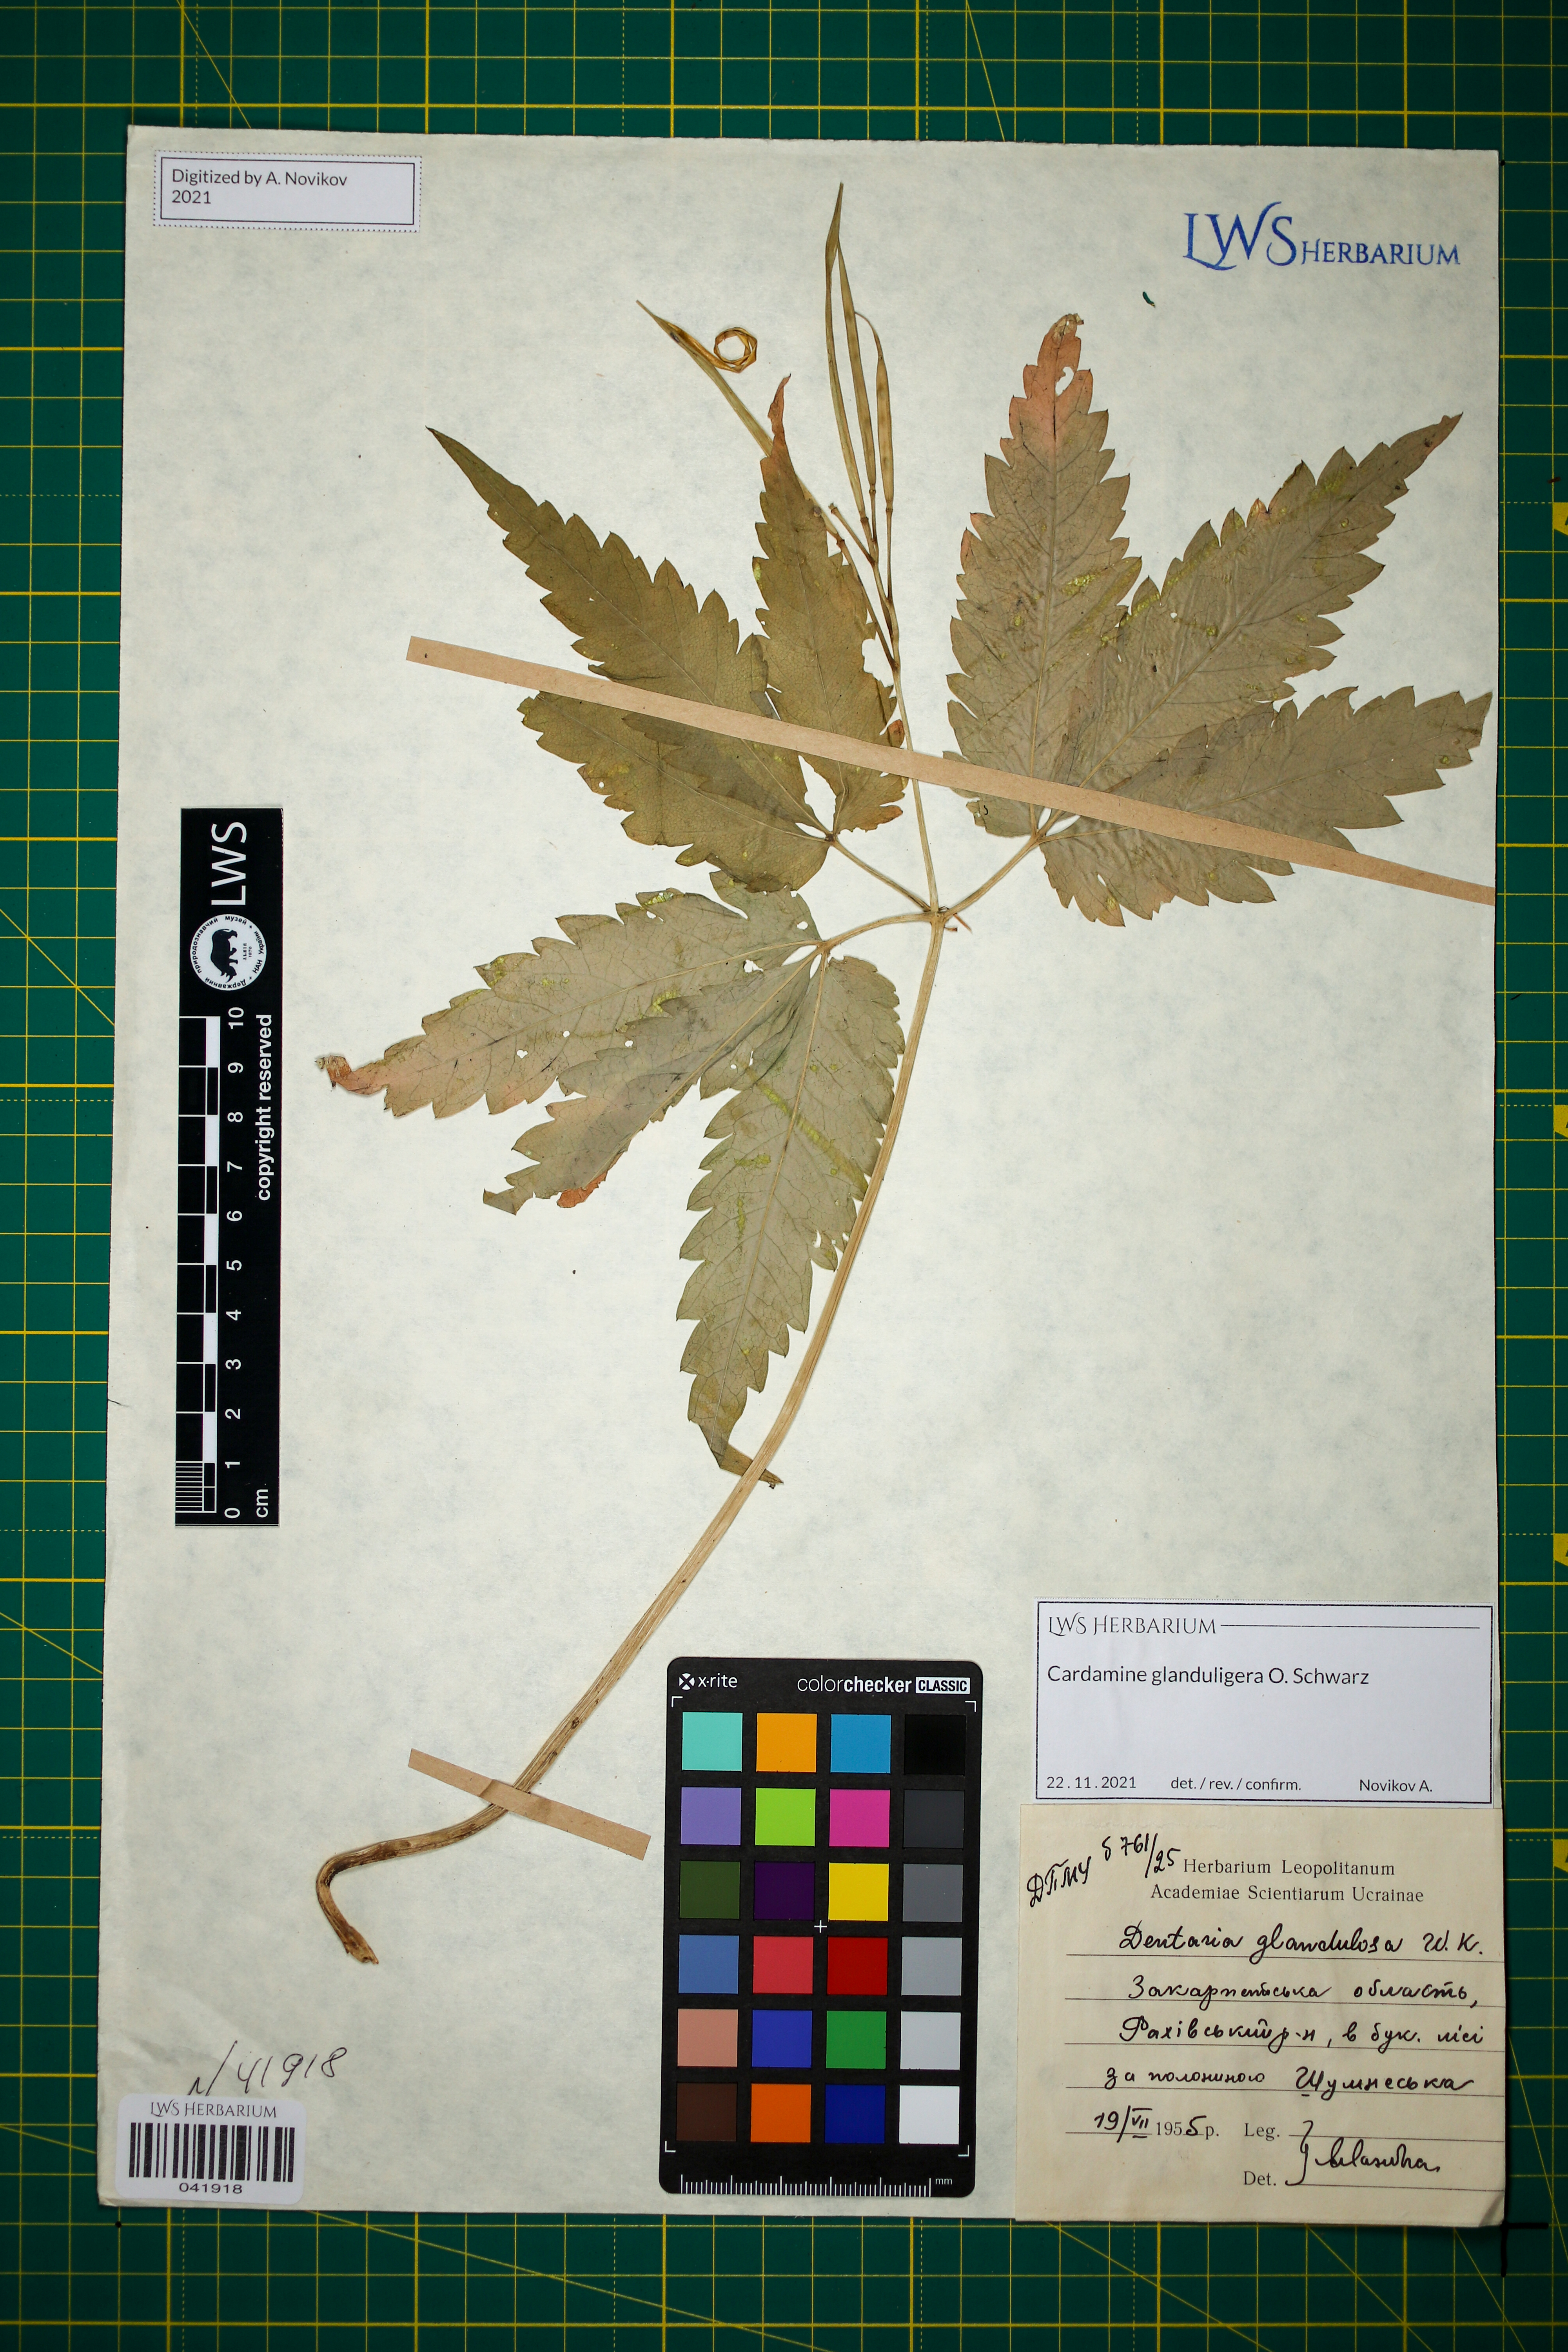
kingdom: Plantae
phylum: Tracheophyta
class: Magnoliopsida
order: Brassicales
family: Brassicaceae
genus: Cardamine
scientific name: Cardamine glanduligera
